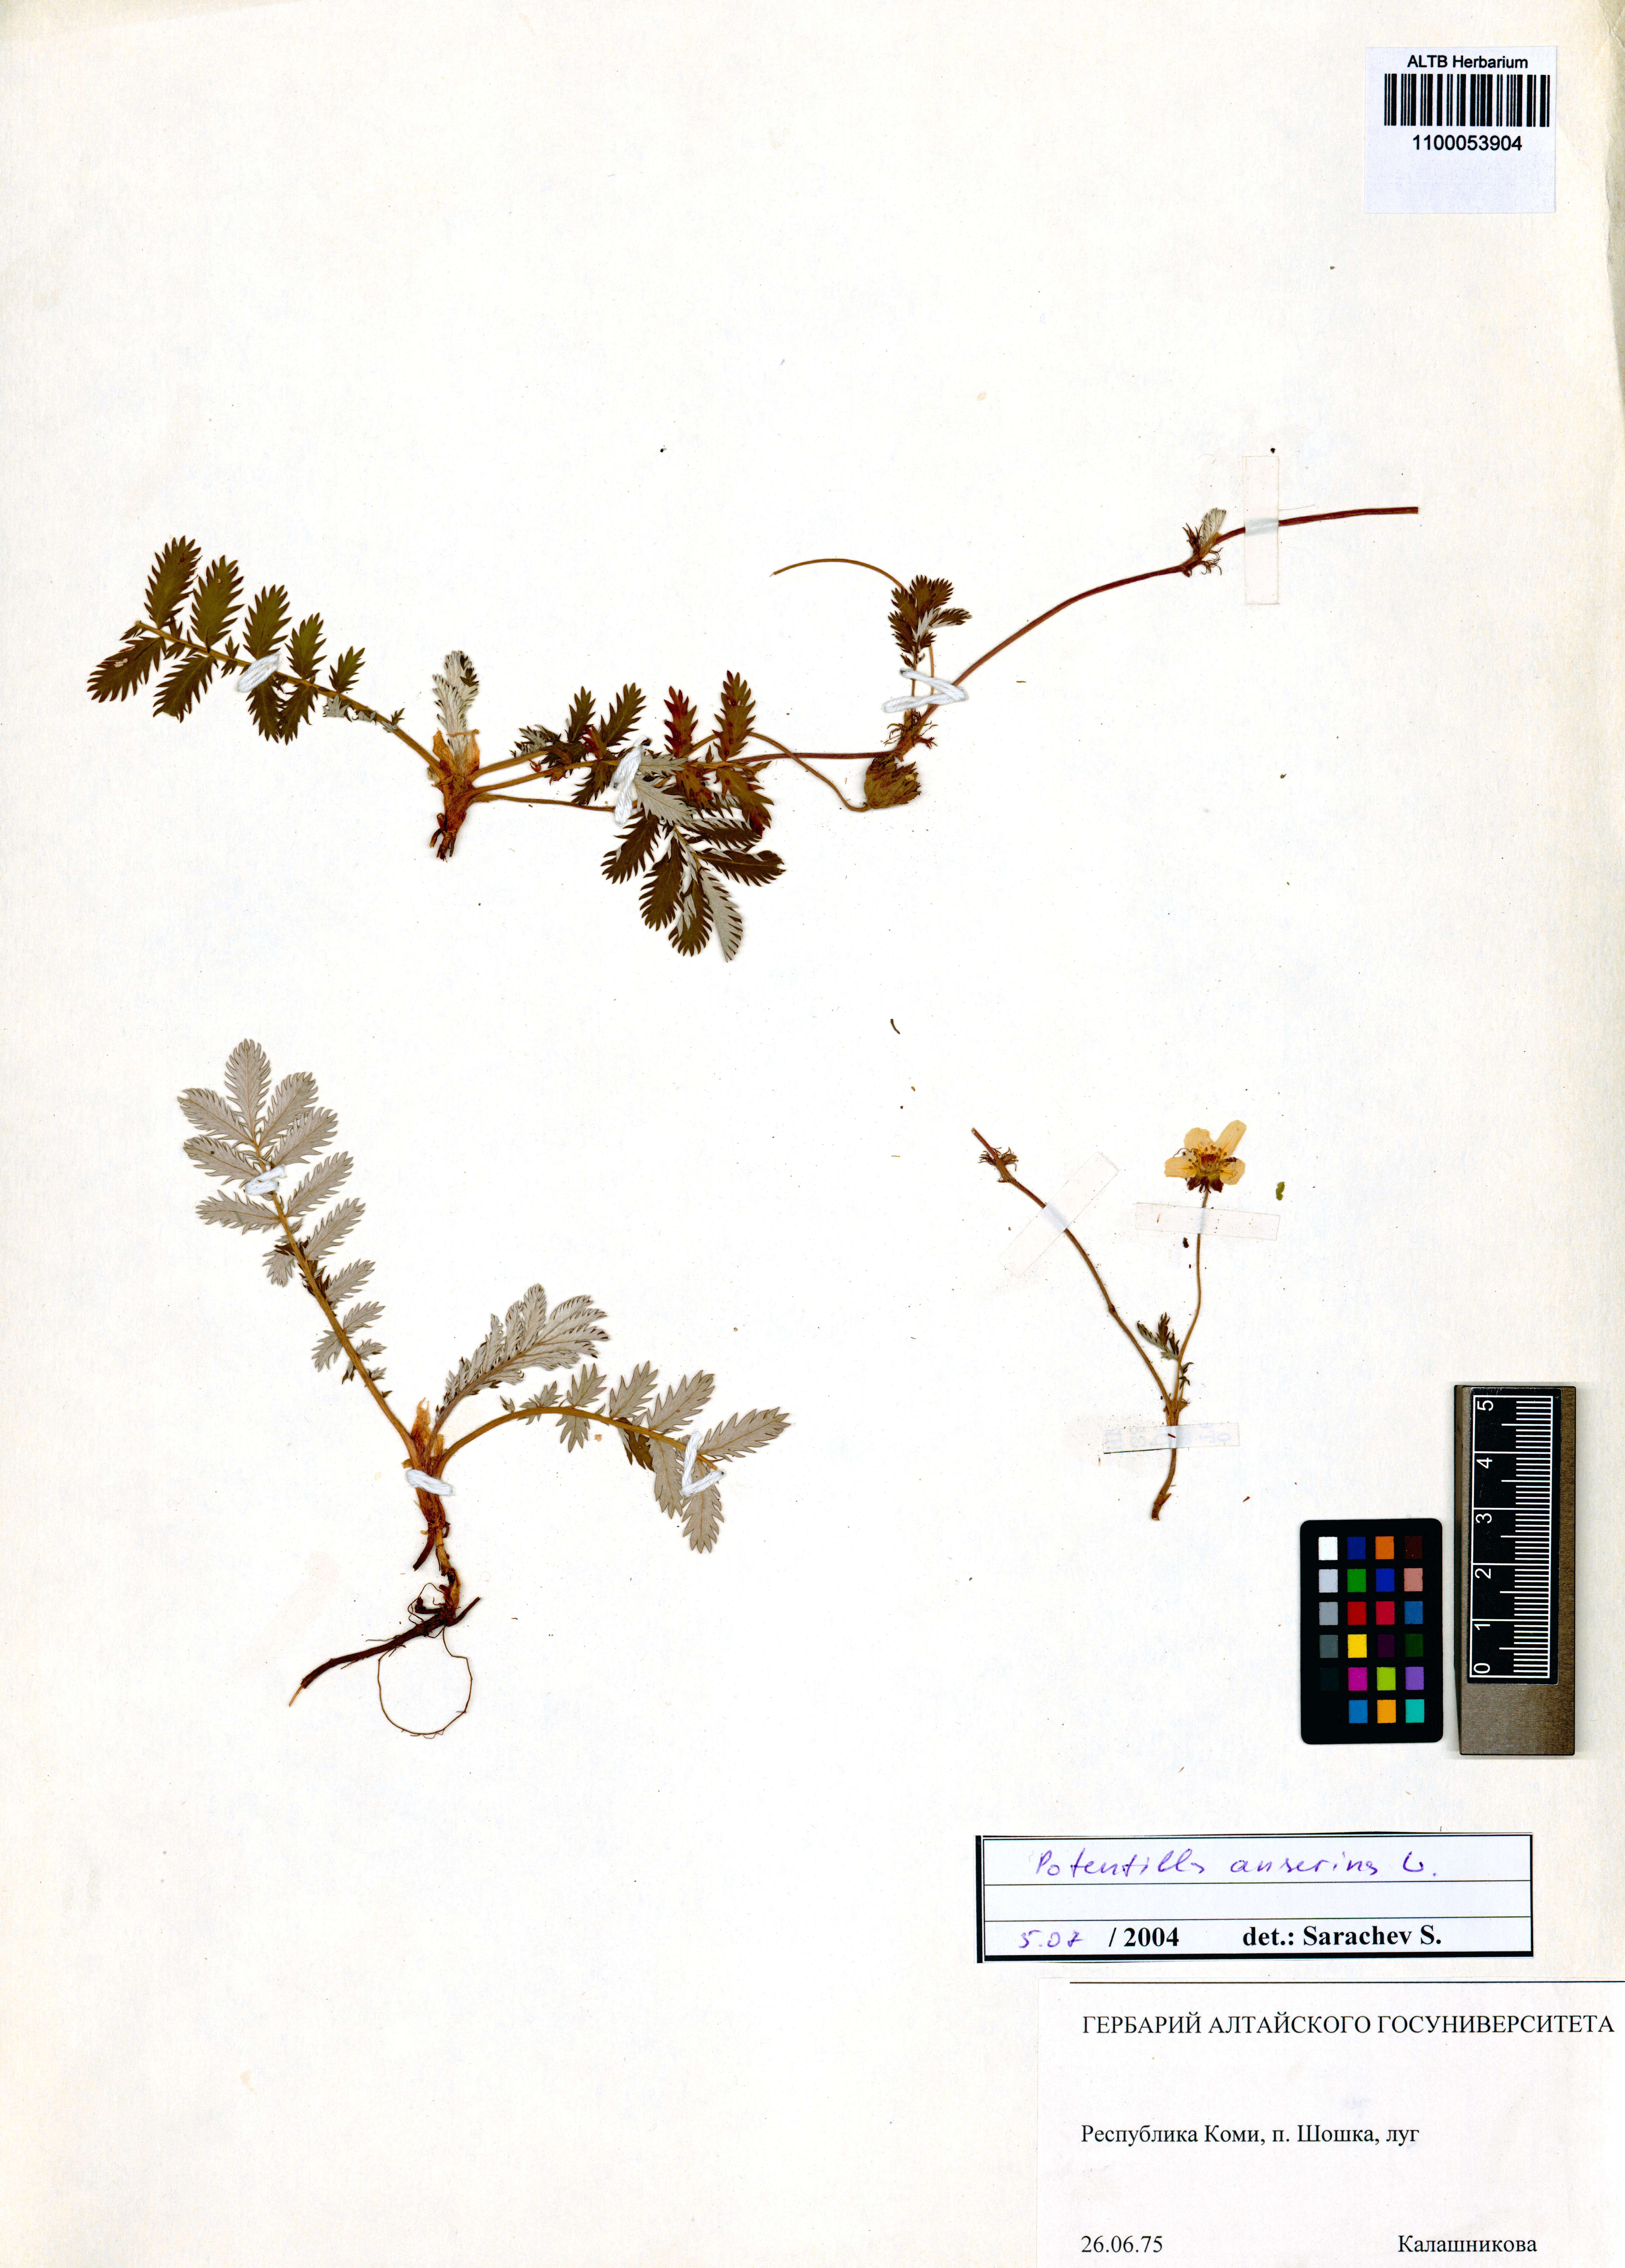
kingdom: Plantae
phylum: Tracheophyta
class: Magnoliopsida
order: Rosales
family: Rosaceae
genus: Argentina
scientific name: Argentina anserina
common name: Common silverweed
